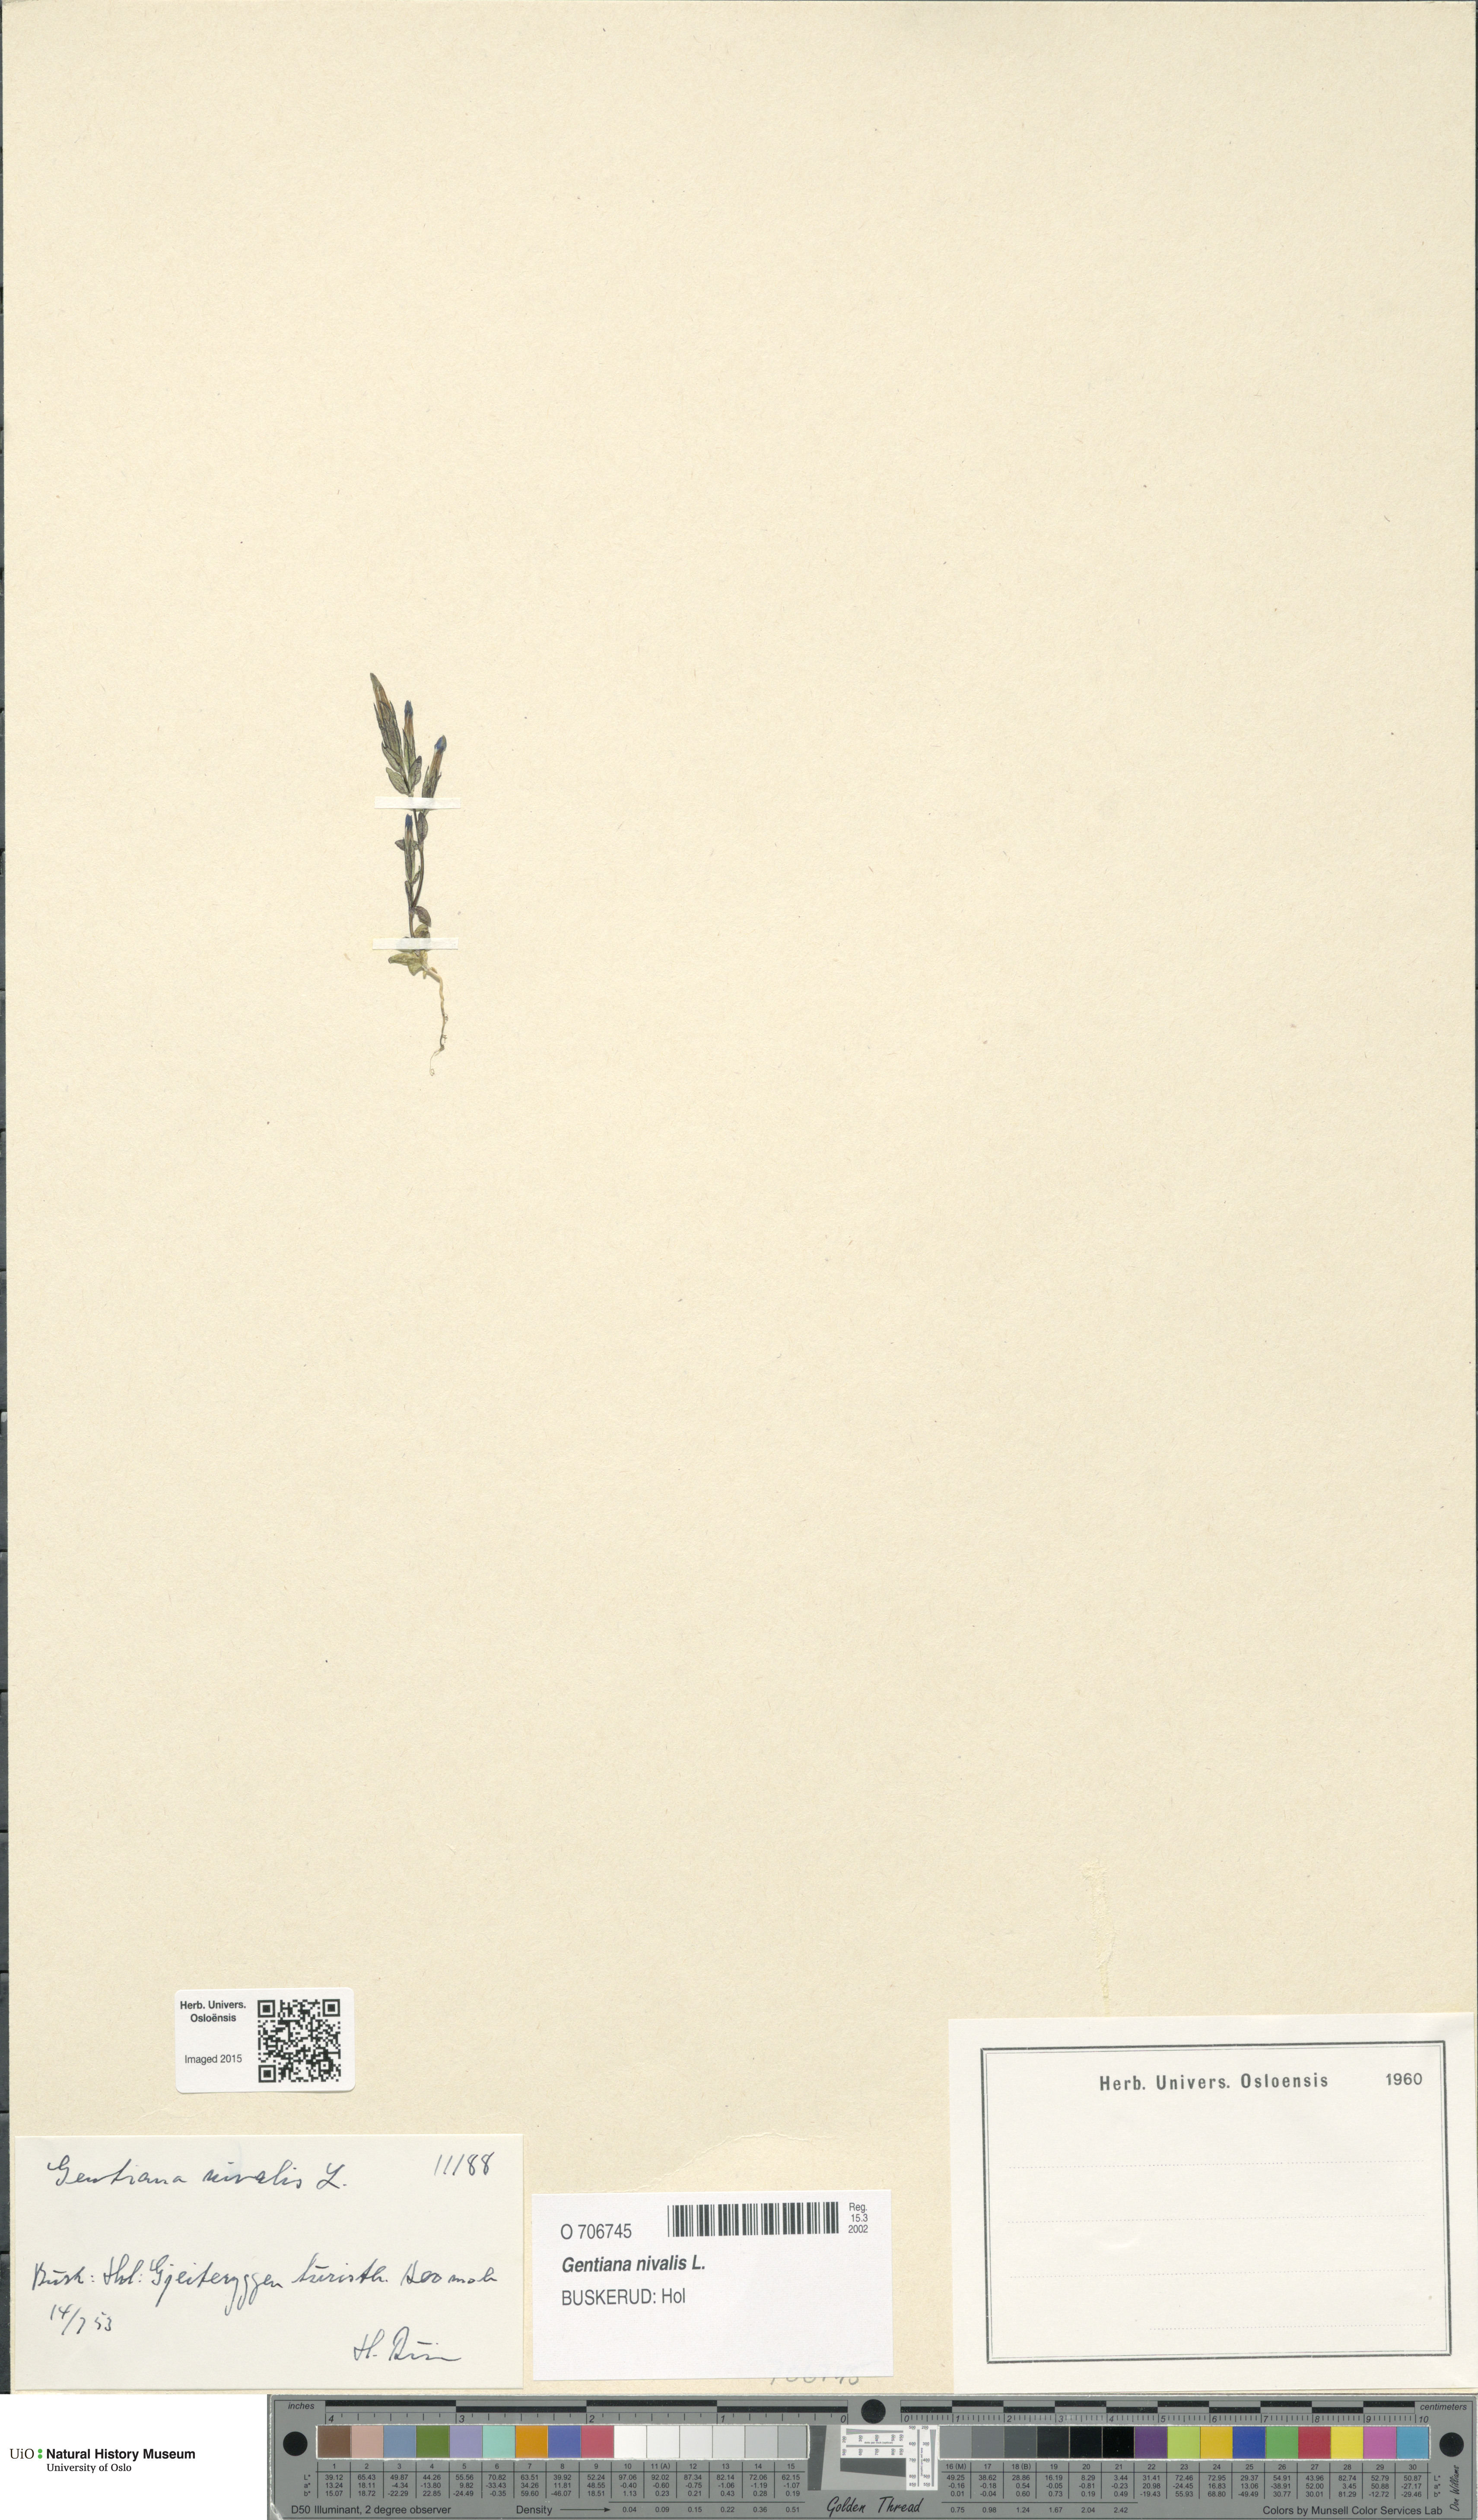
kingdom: Plantae
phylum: Tracheophyta
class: Magnoliopsida
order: Gentianales
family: Gentianaceae
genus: Gentiana
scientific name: Gentiana nivalis
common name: Alpine gentian
